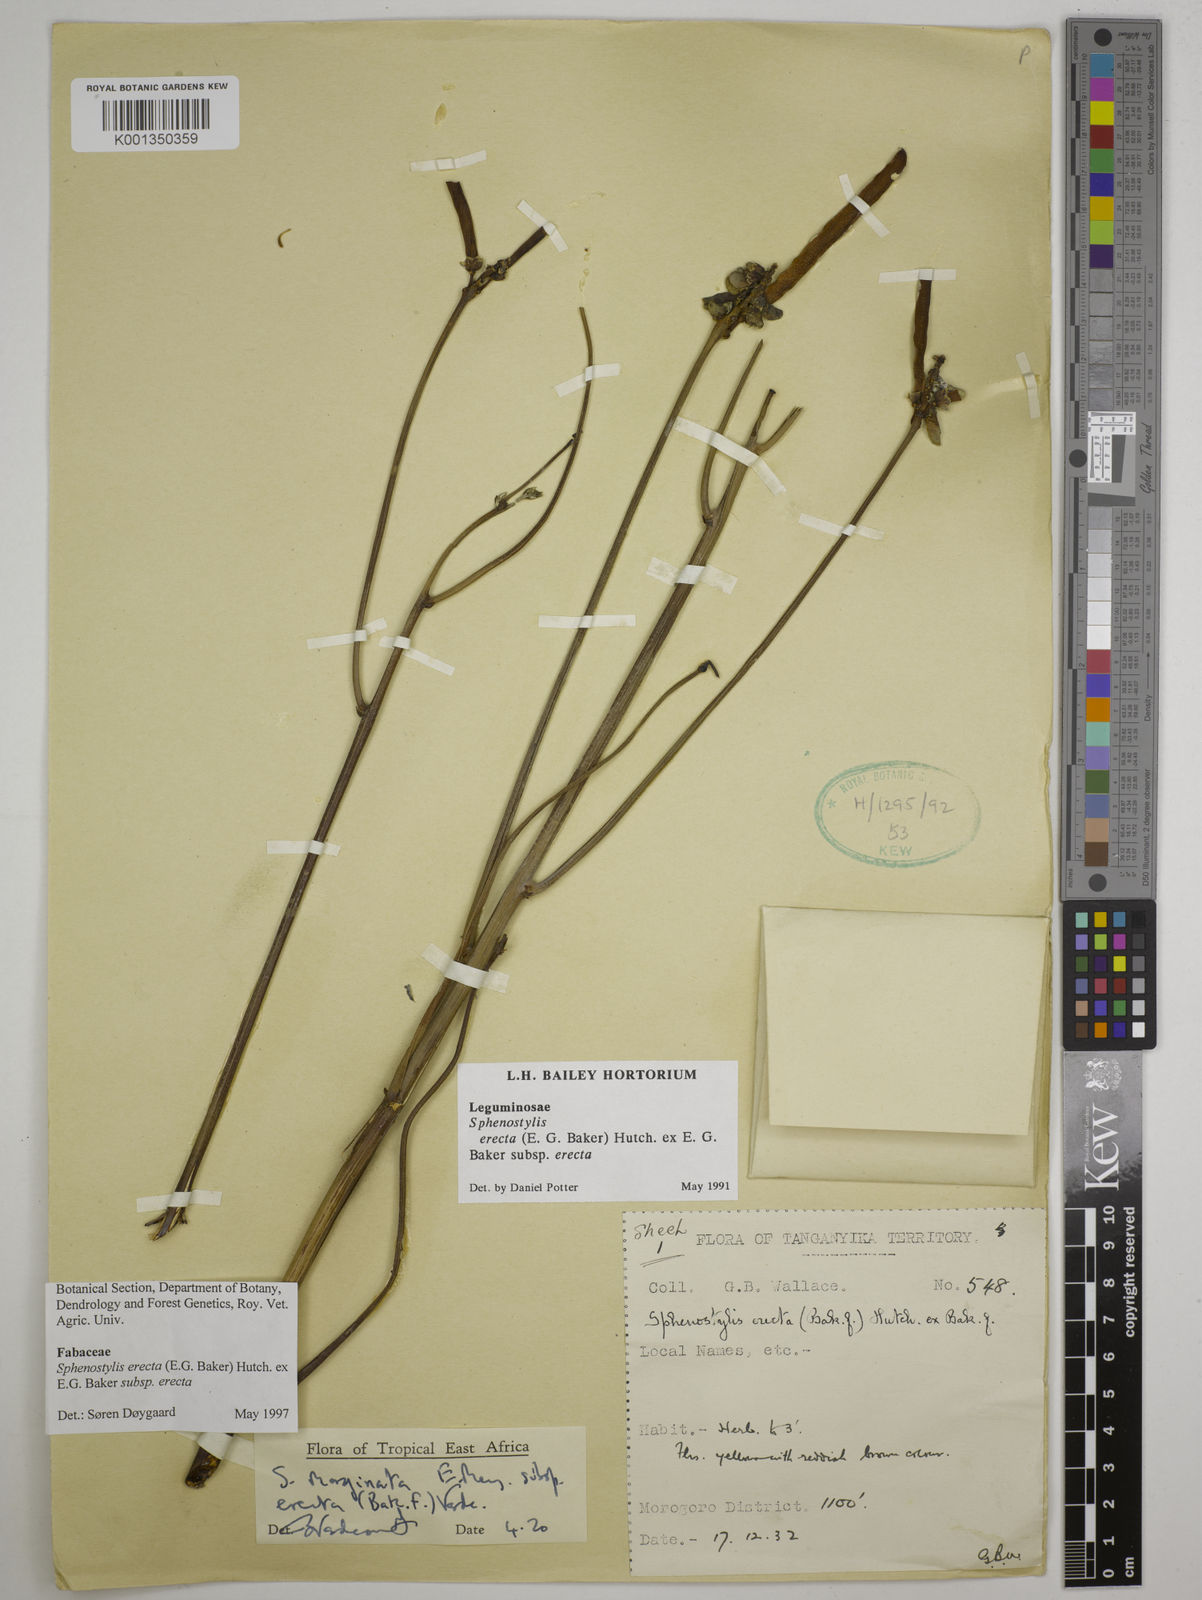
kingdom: Plantae
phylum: Tracheophyta
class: Magnoliopsida
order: Fabales
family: Fabaceae
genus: Sphenostylis
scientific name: Sphenostylis erecta
